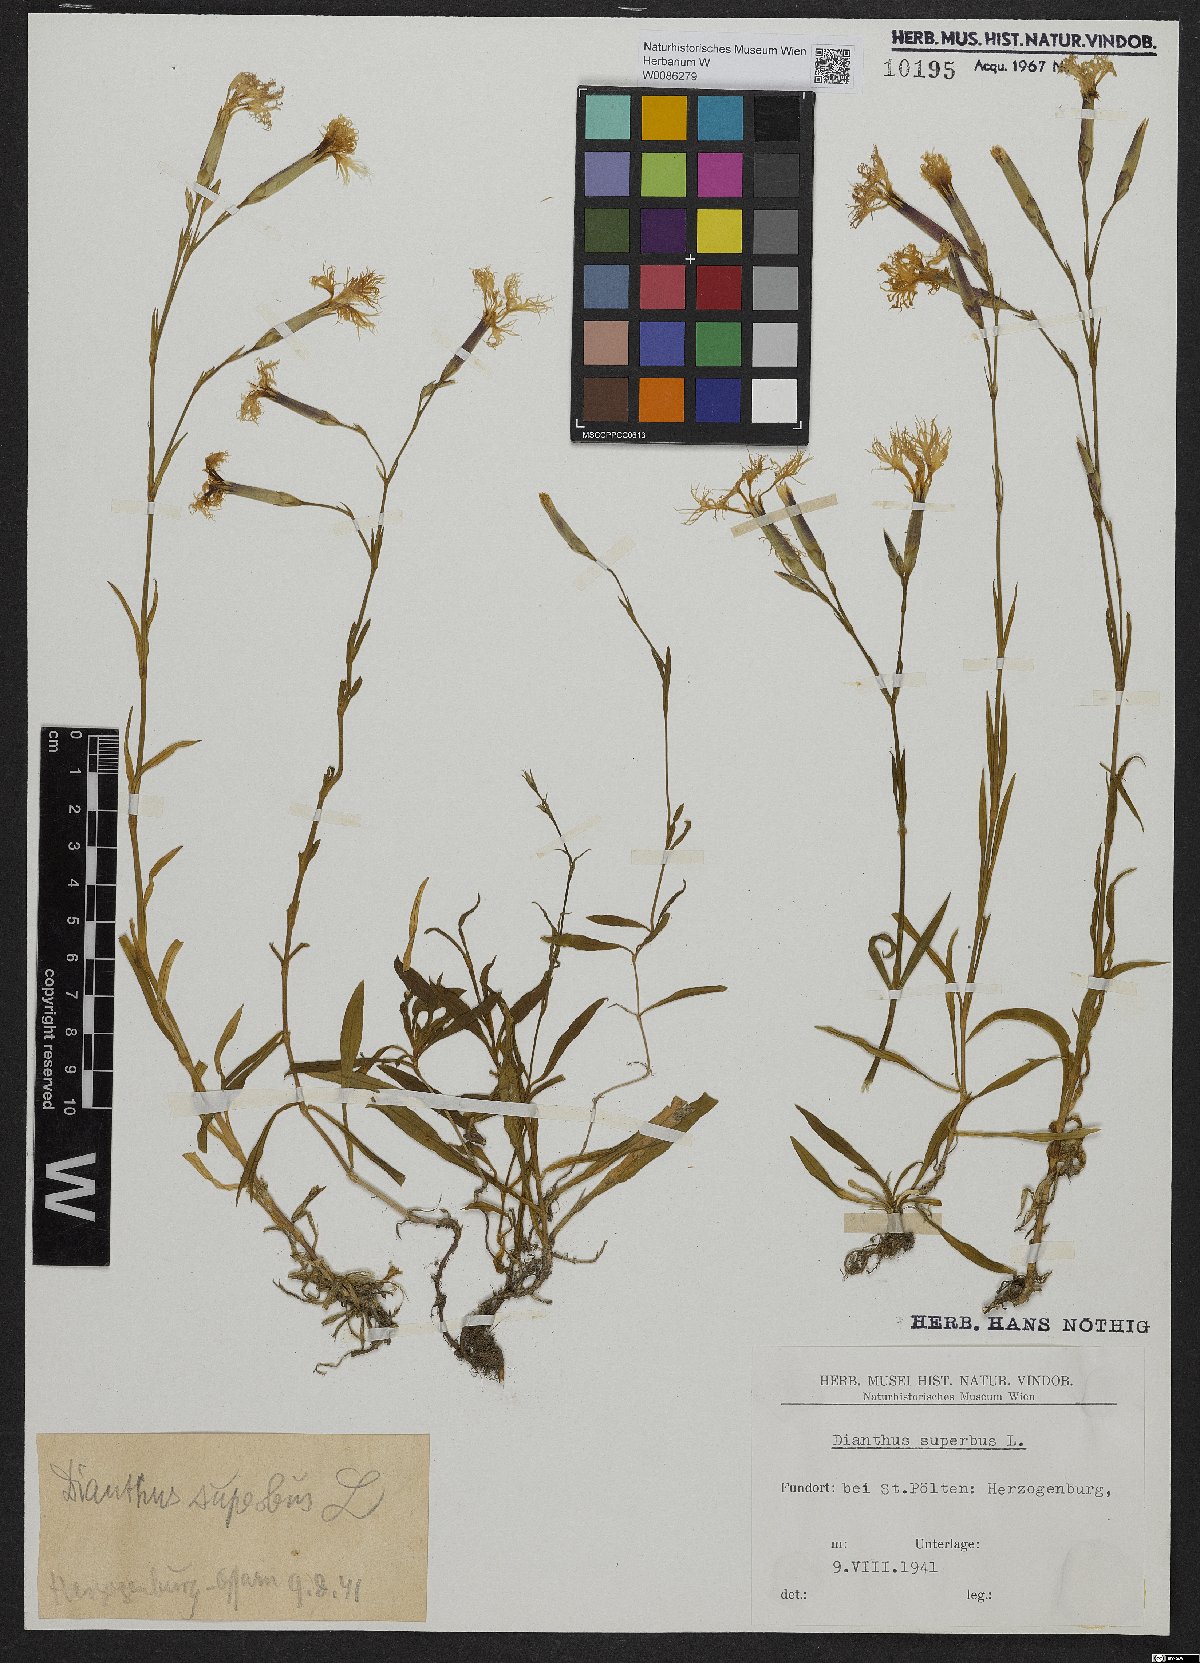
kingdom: Plantae
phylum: Tracheophyta
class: Magnoliopsida
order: Caryophyllales
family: Caryophyllaceae
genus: Dianthus
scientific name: Dianthus superbus
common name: Fringed pink
